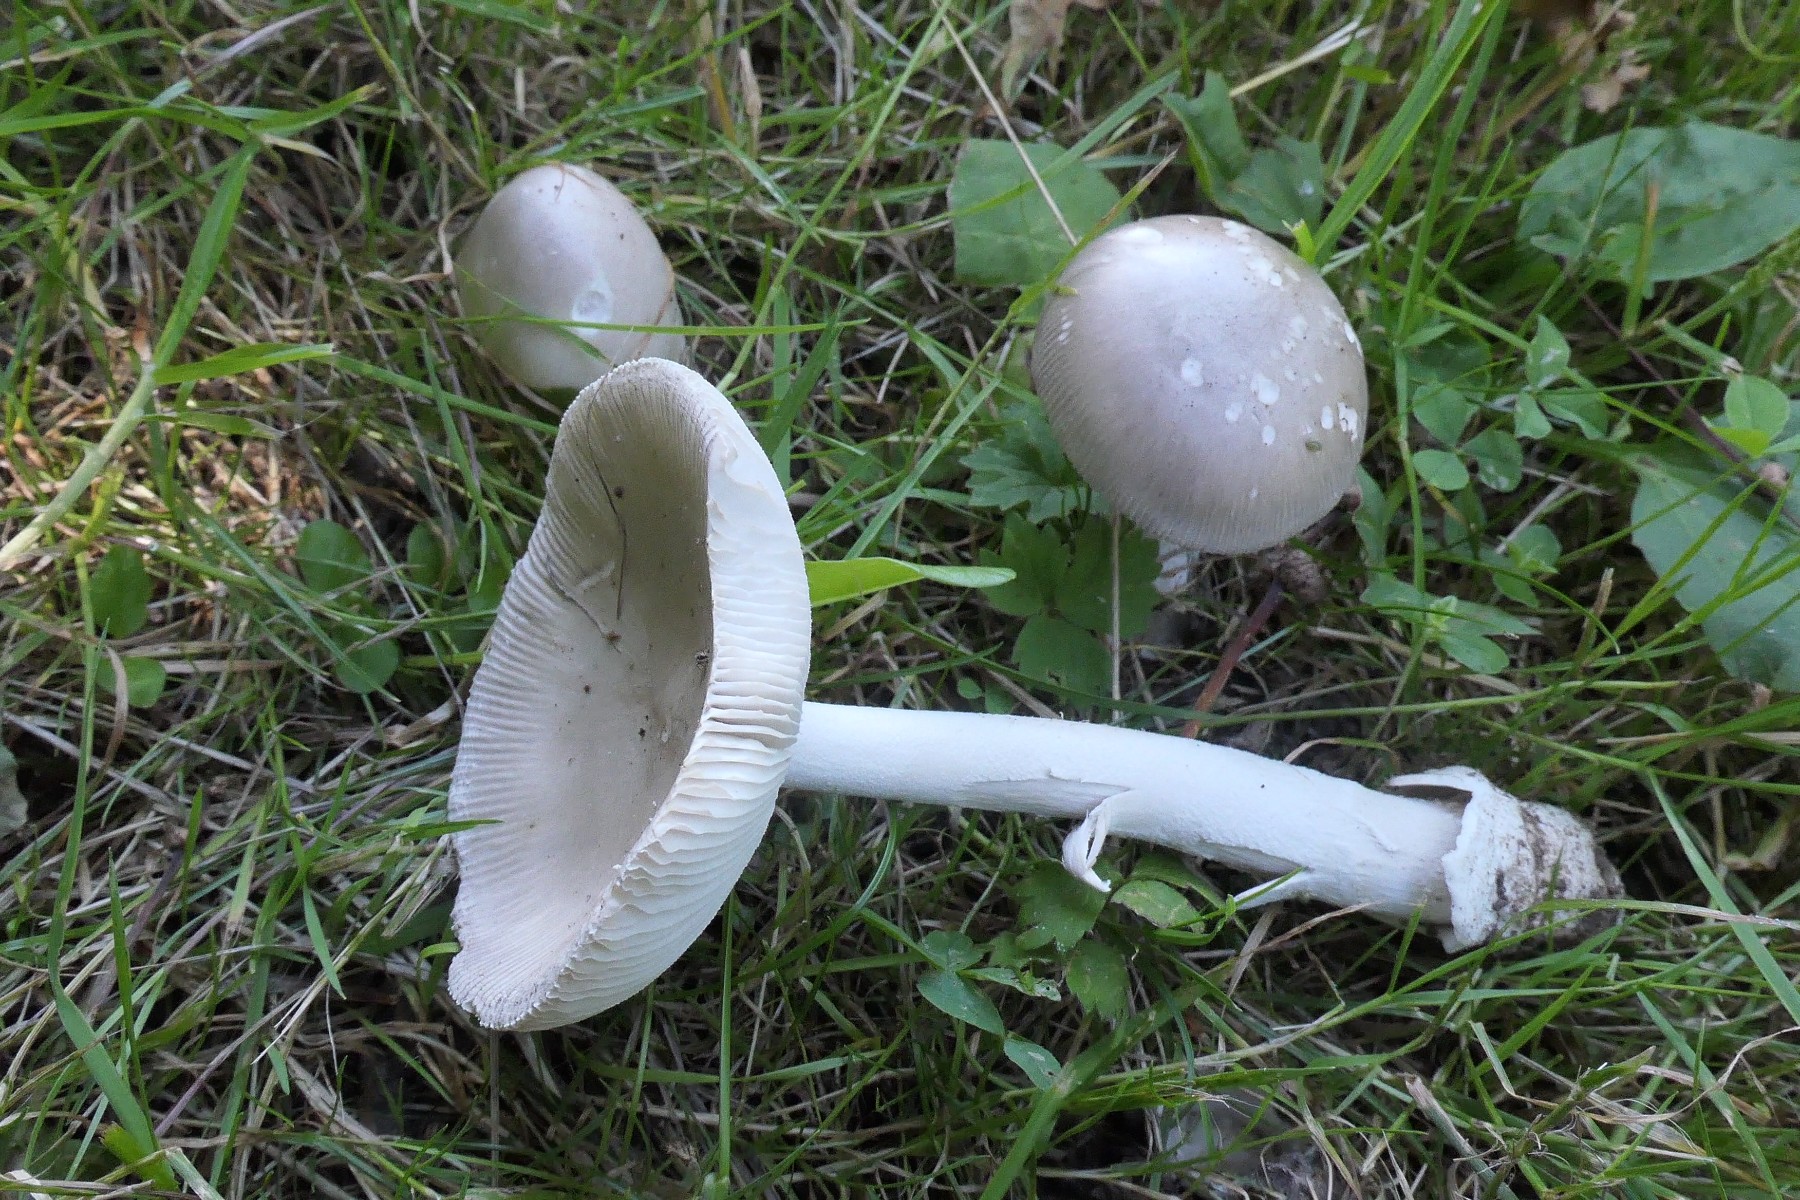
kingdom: Fungi
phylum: Basidiomycota
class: Agaricomycetes
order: Agaricales
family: Amanitaceae
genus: Amanita
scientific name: Amanita huijsmanii
